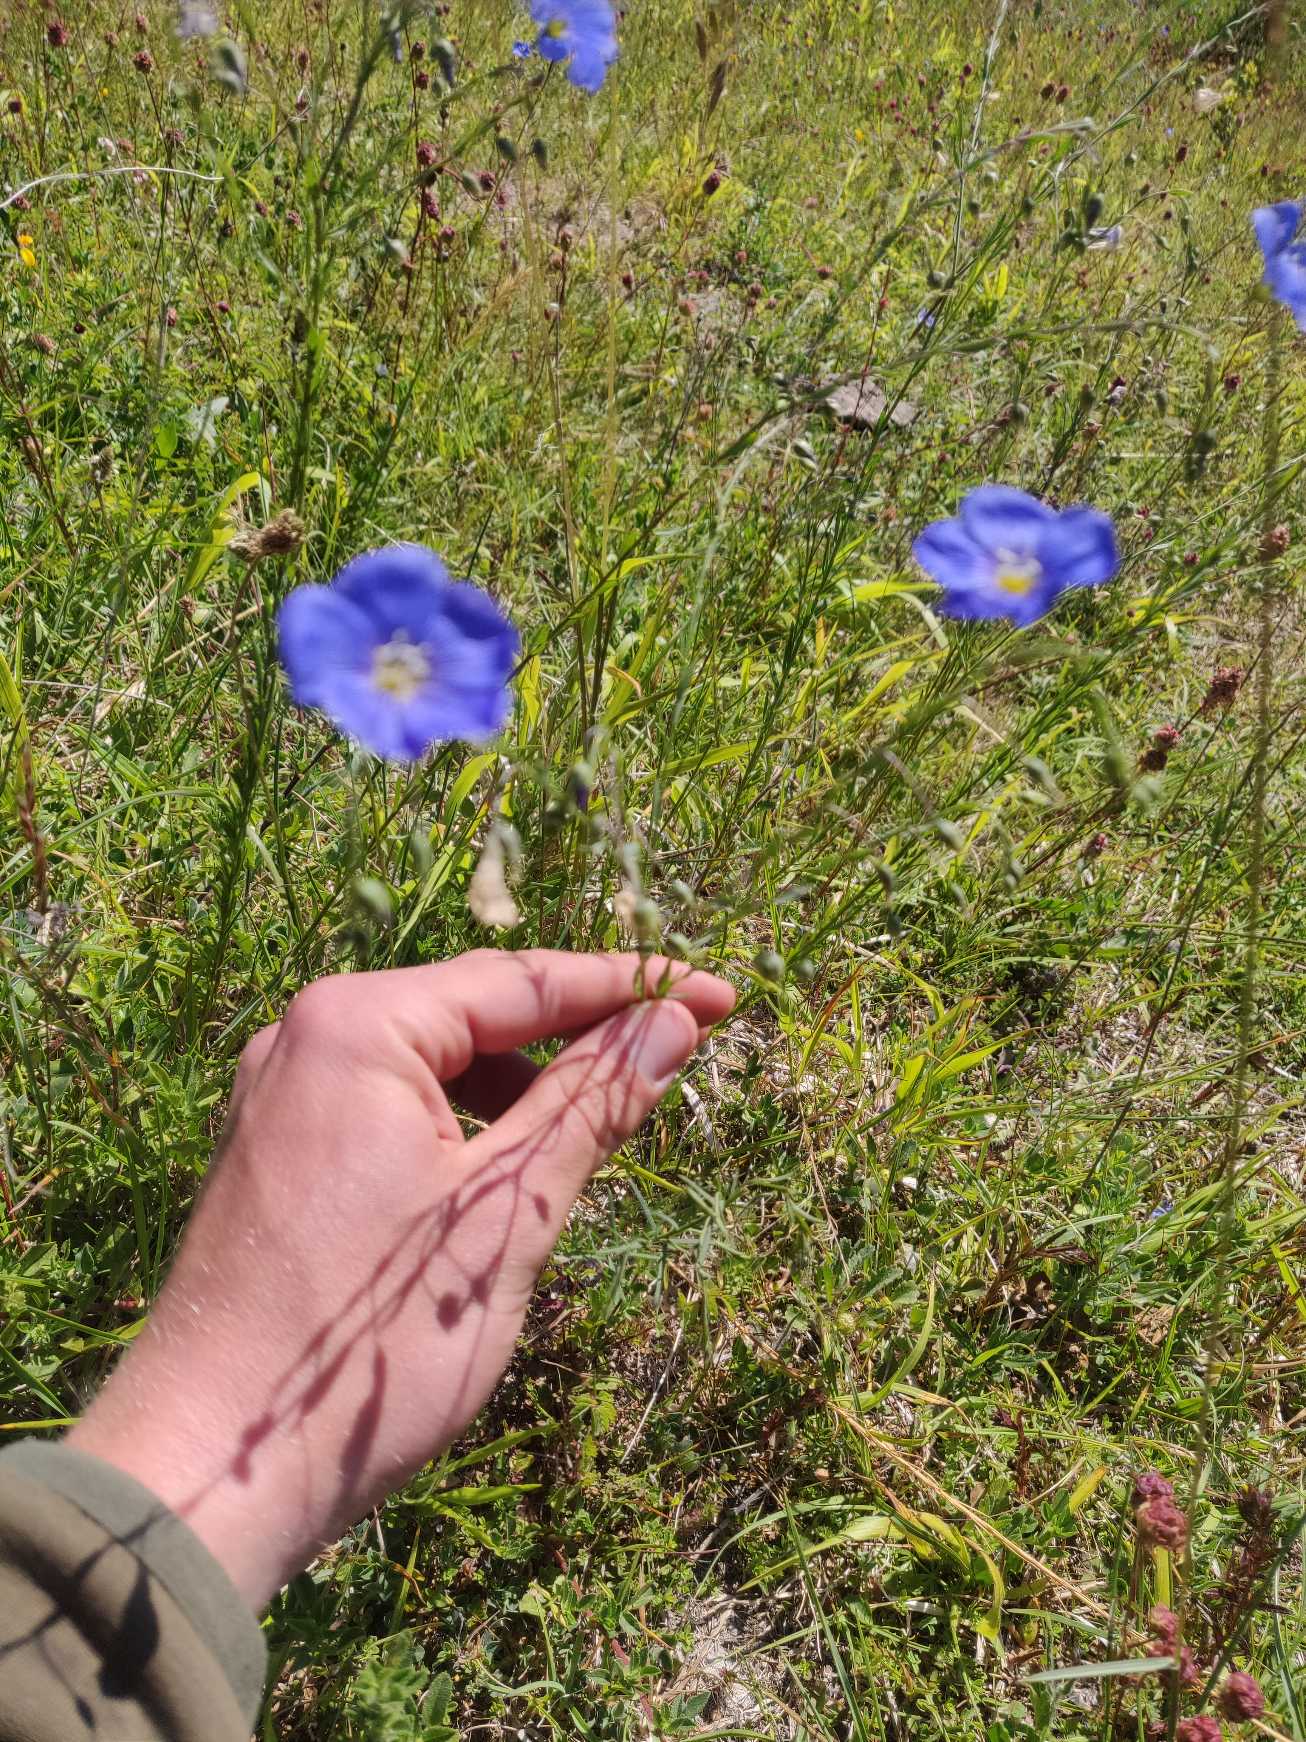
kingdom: Plantae
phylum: Tracheophyta
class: Magnoliopsida
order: Malpighiales
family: Linaceae
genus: Linum
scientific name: Linum austriacum
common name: Østrigsk hør
